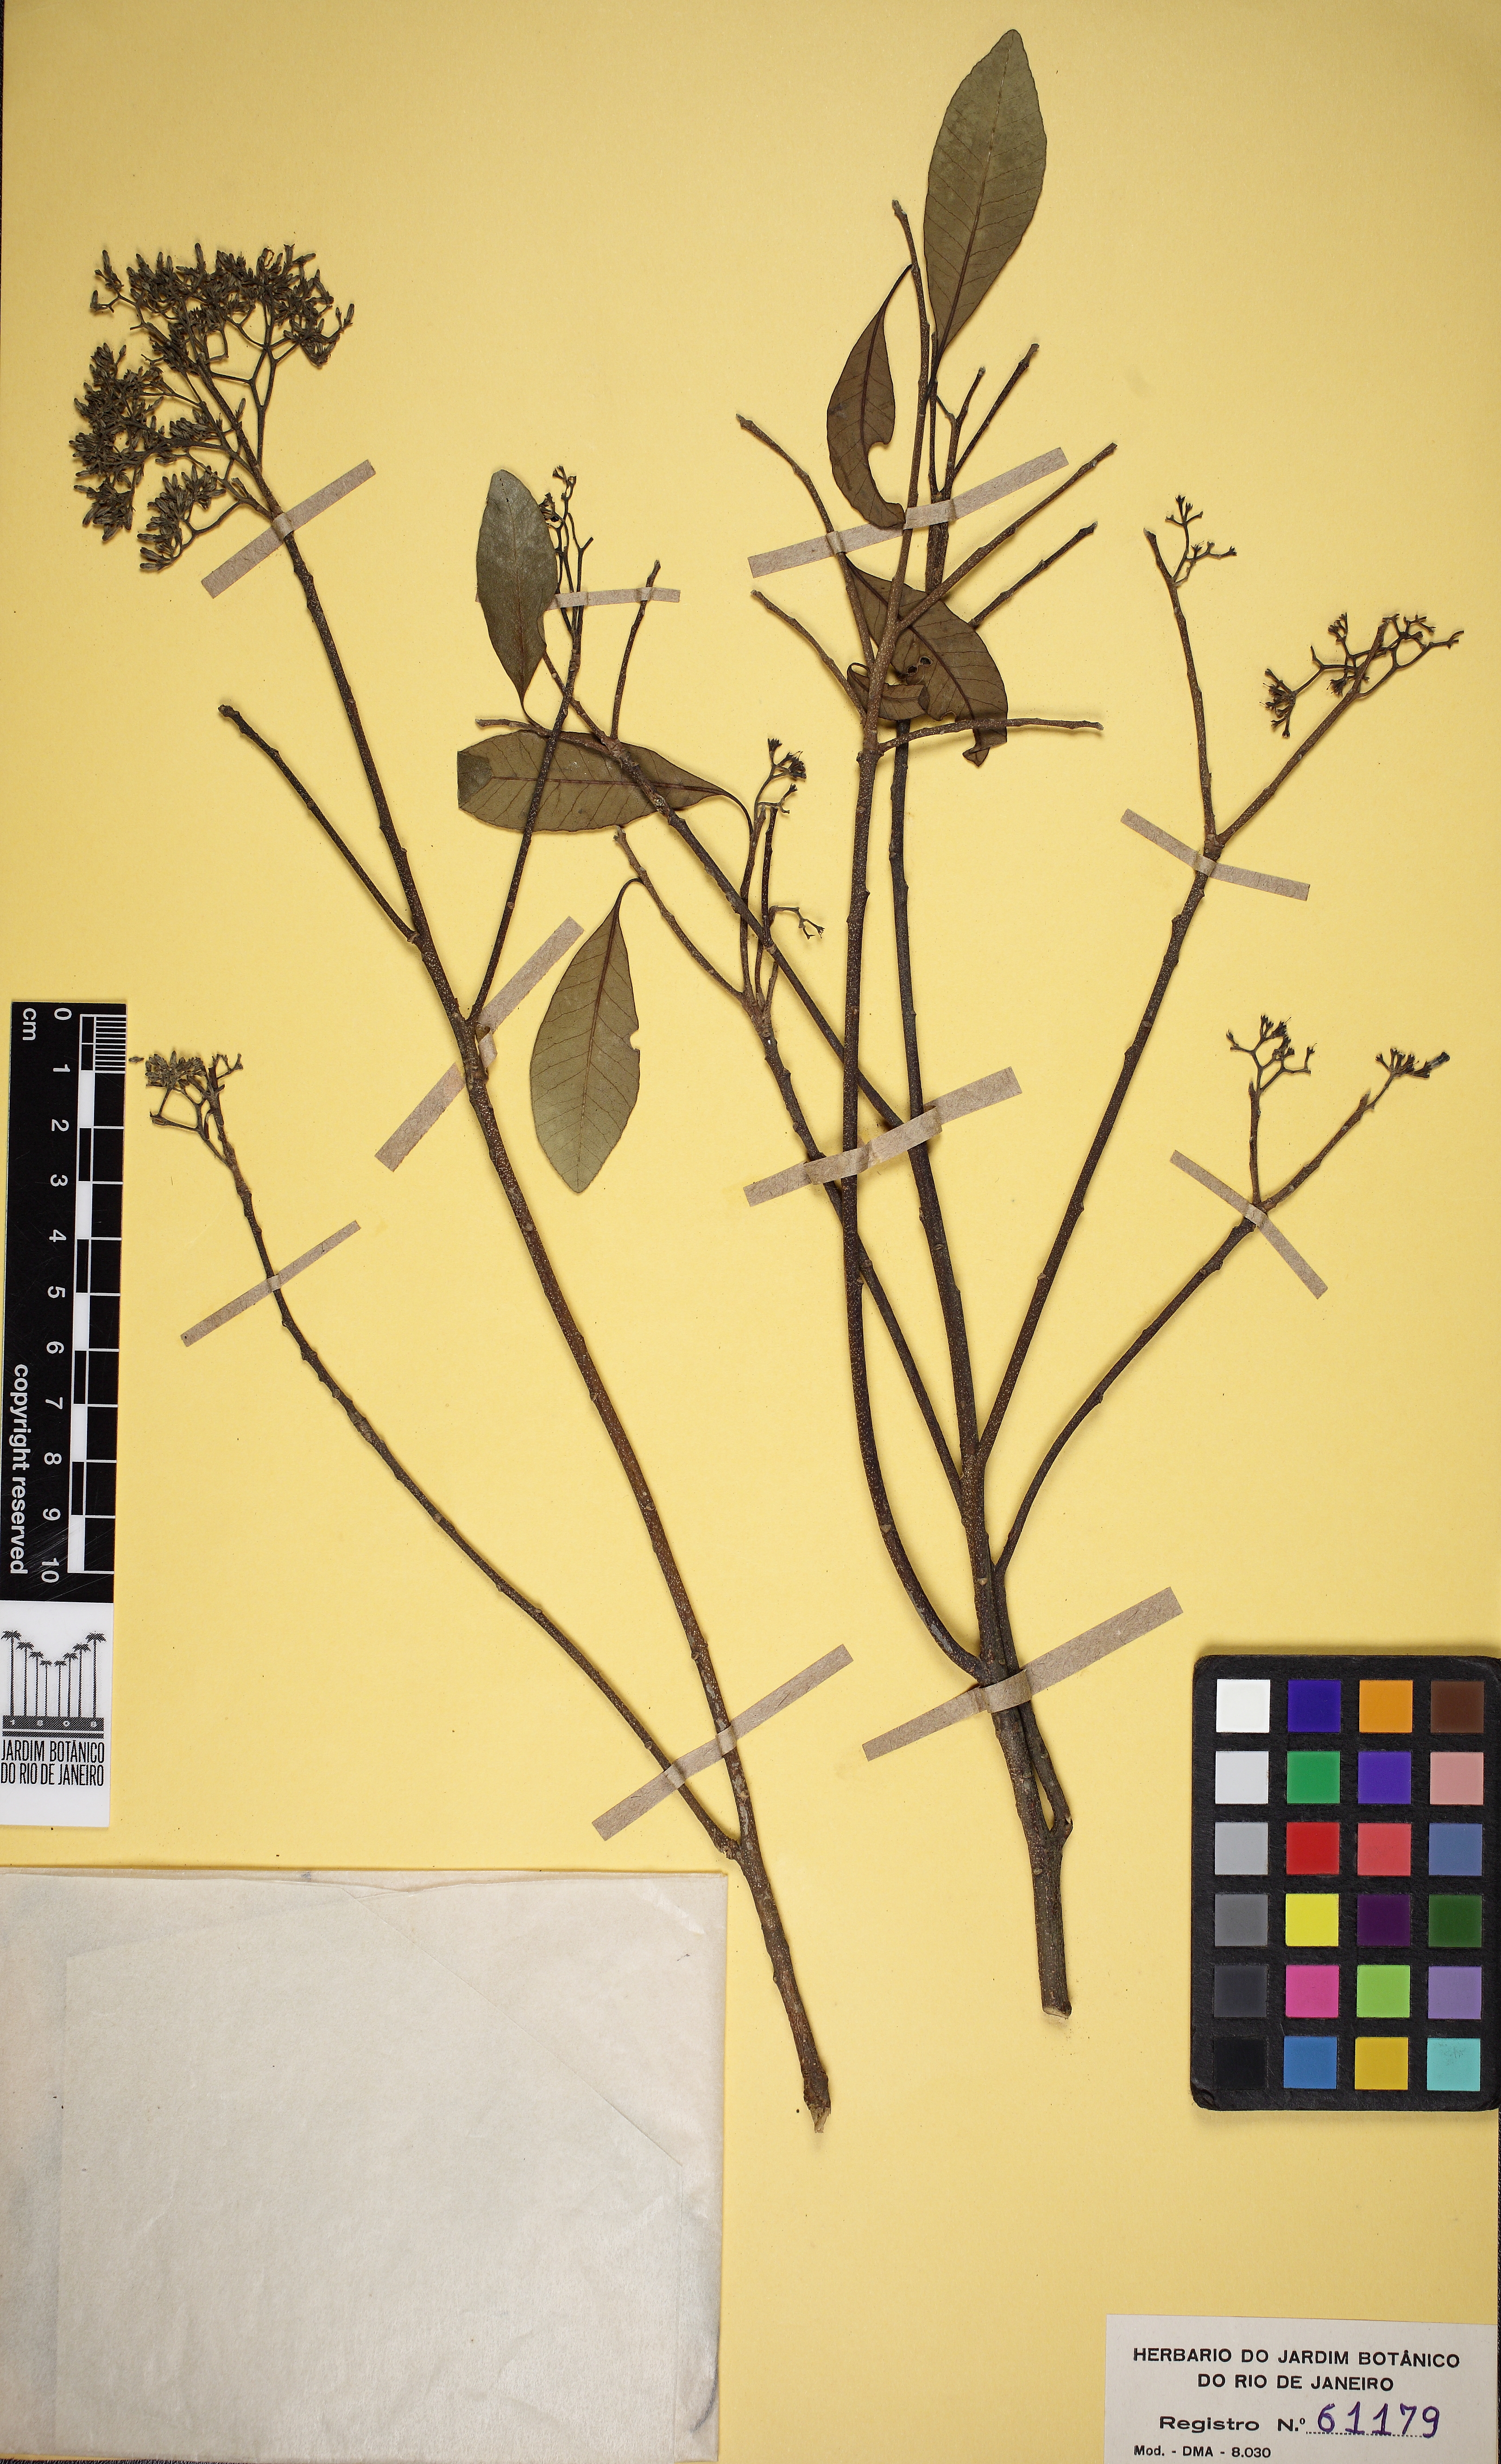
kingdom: Plantae
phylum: Tracheophyta
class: Magnoliopsida
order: Gentianales
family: Apocynaceae
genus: Aspidosperma
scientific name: Aspidosperma olivaceum
